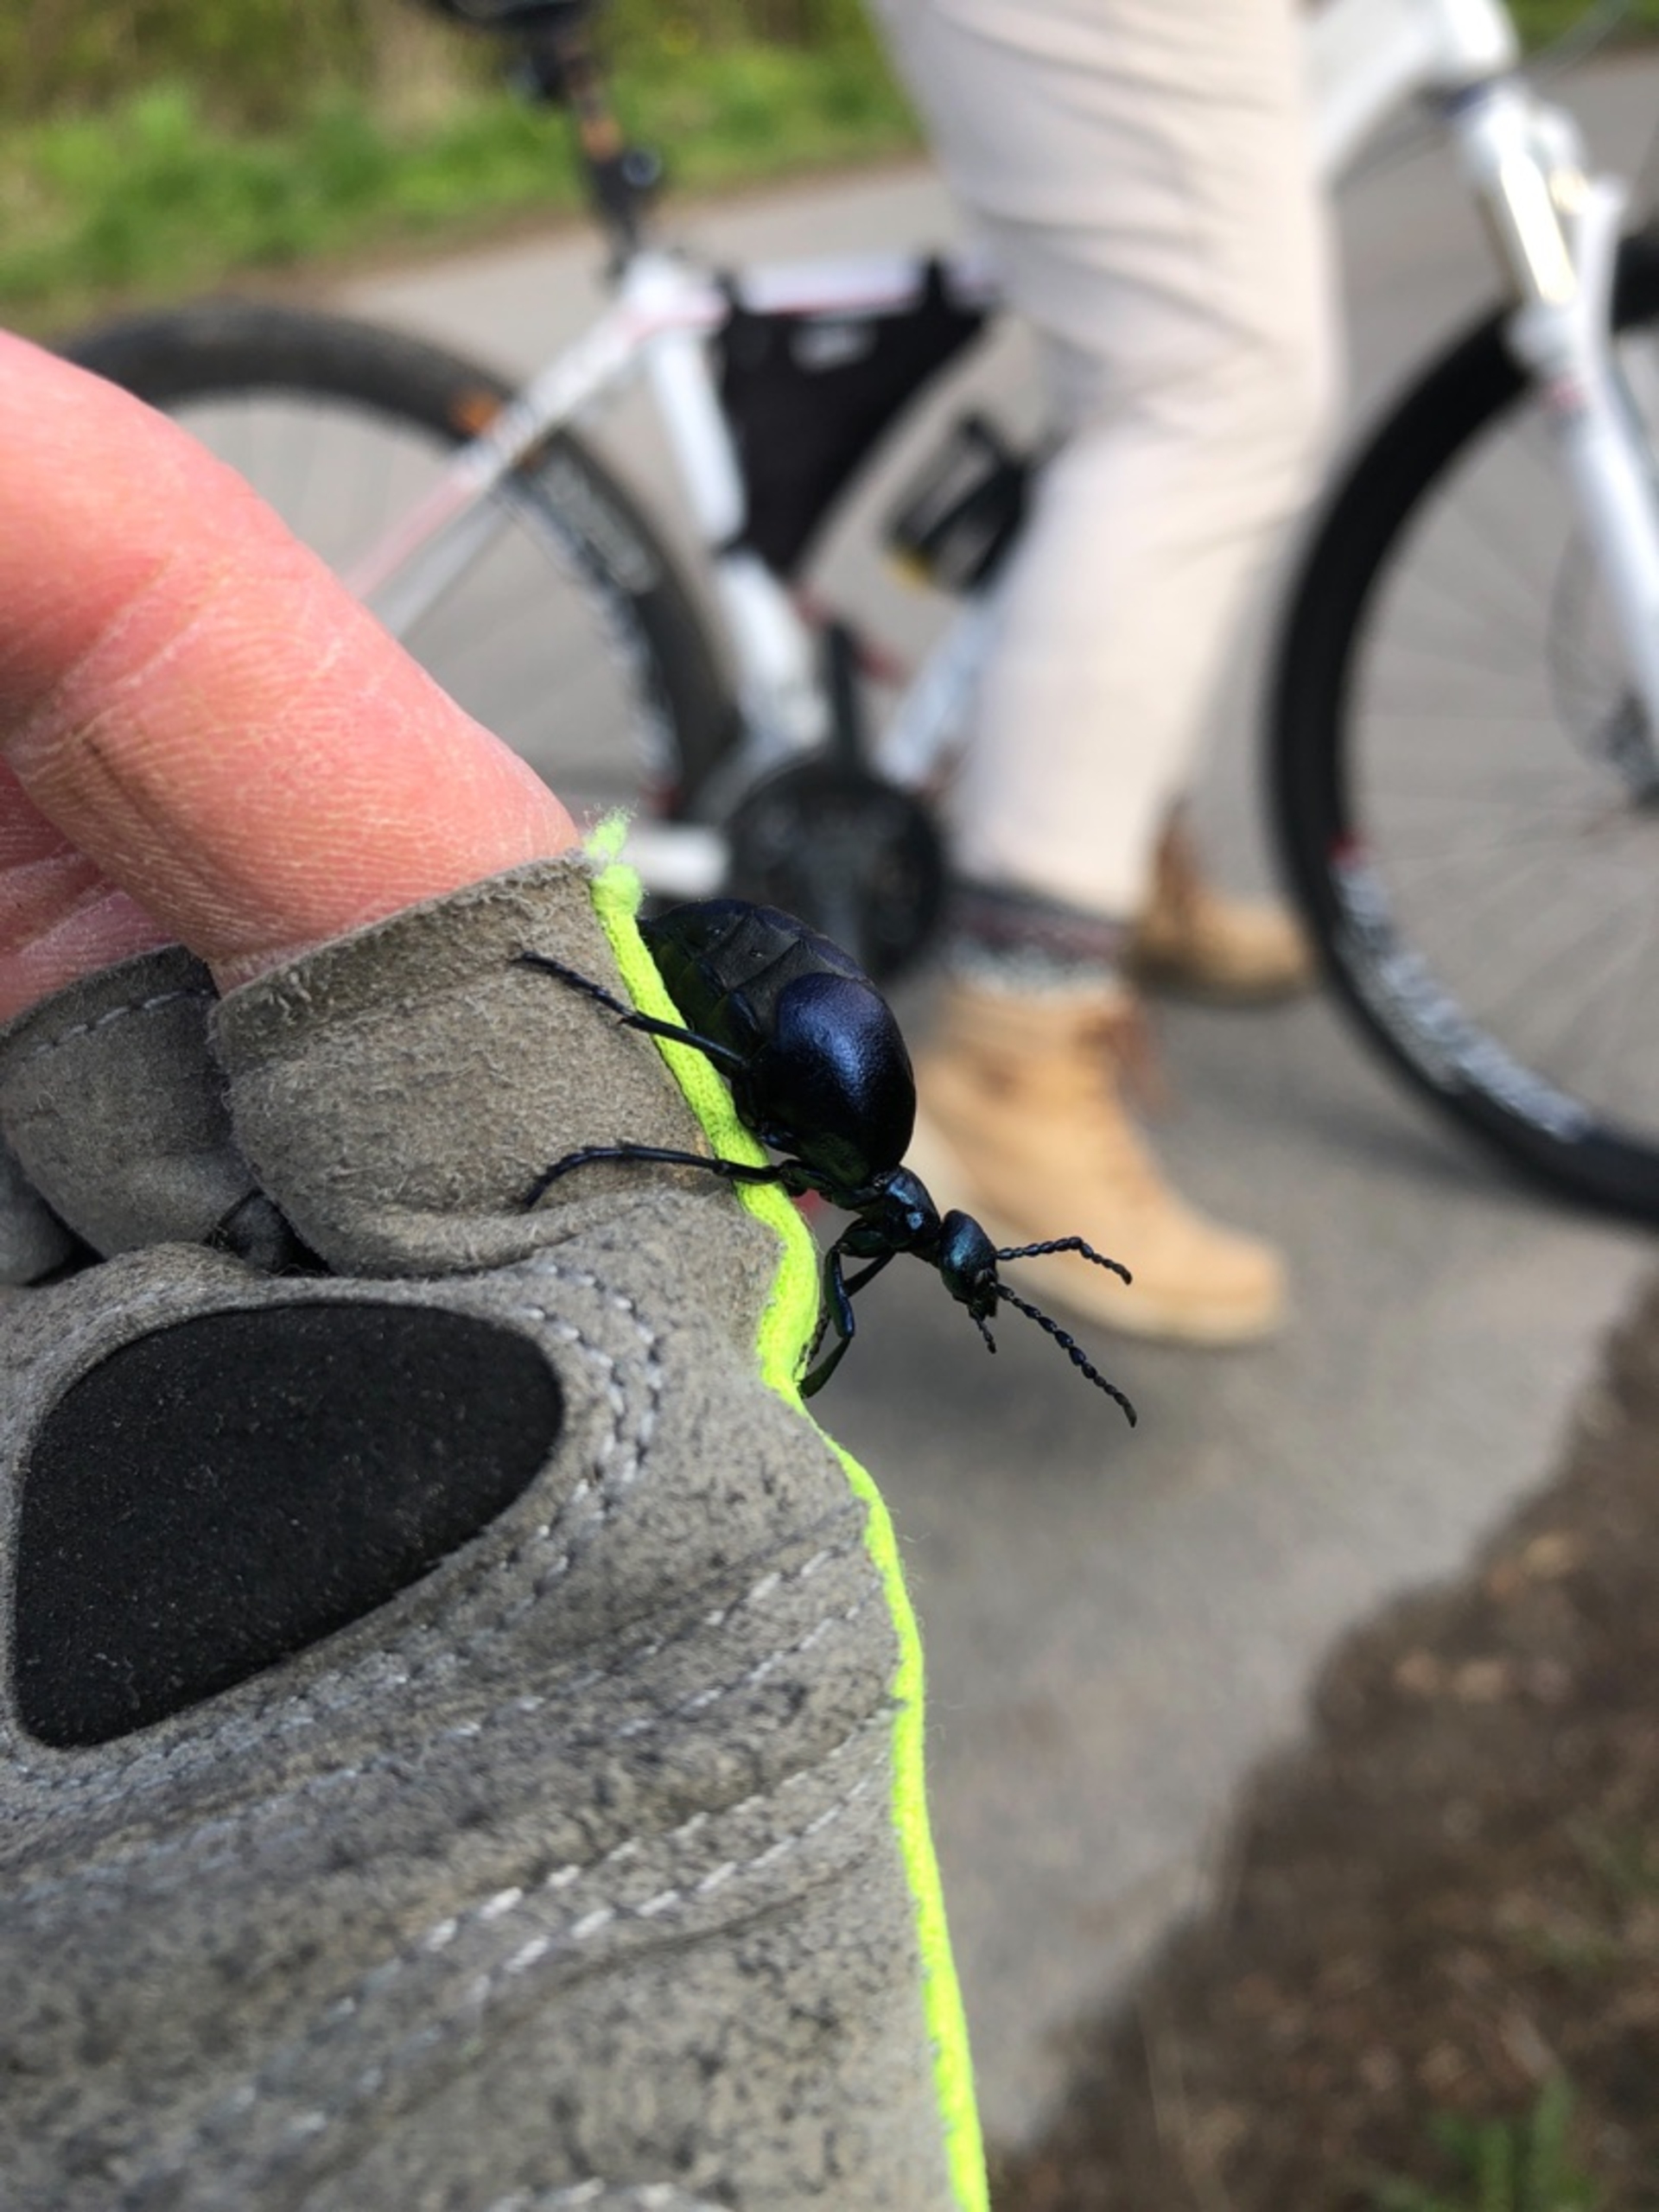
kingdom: Animalia
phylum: Arthropoda
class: Insecta
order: Coleoptera
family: Meloidae
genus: Meloe
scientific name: Meloe violaceus
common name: Blå oliebille
